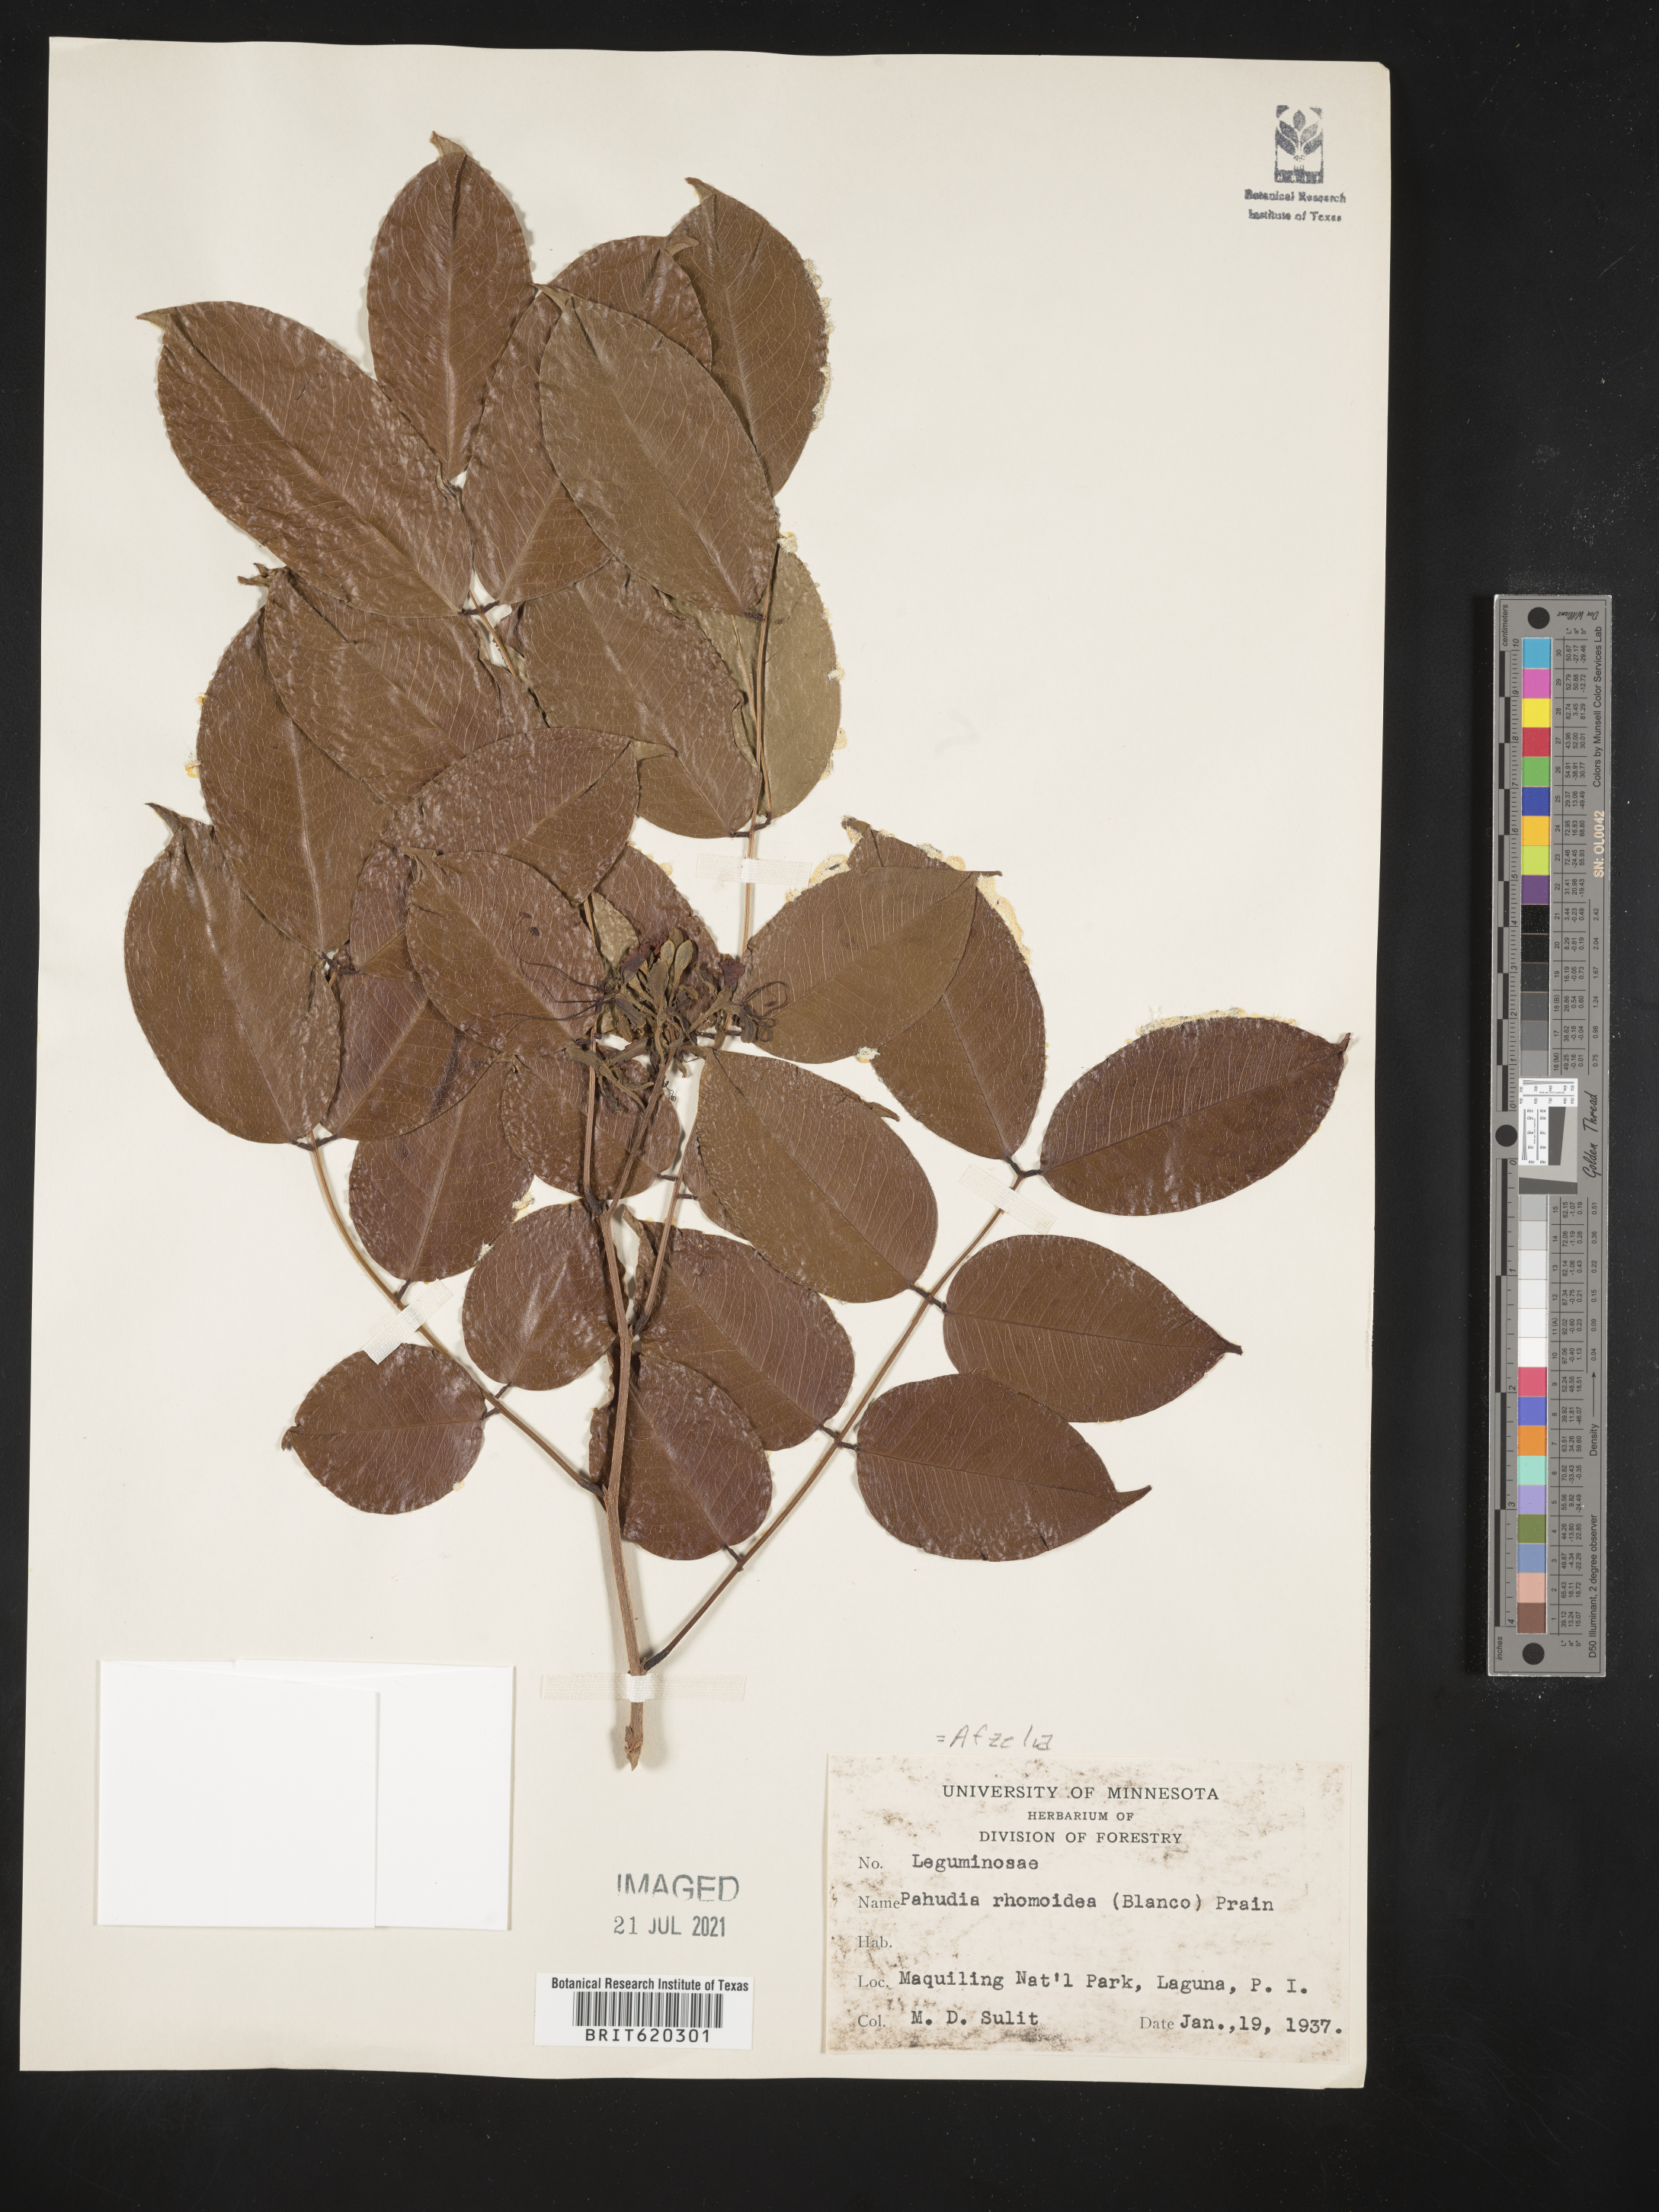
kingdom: Plantae
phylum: Tracheophyta
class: Magnoliopsida
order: Fabales
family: Fabaceae
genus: Afzelia
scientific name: Afzelia rhomboidea
